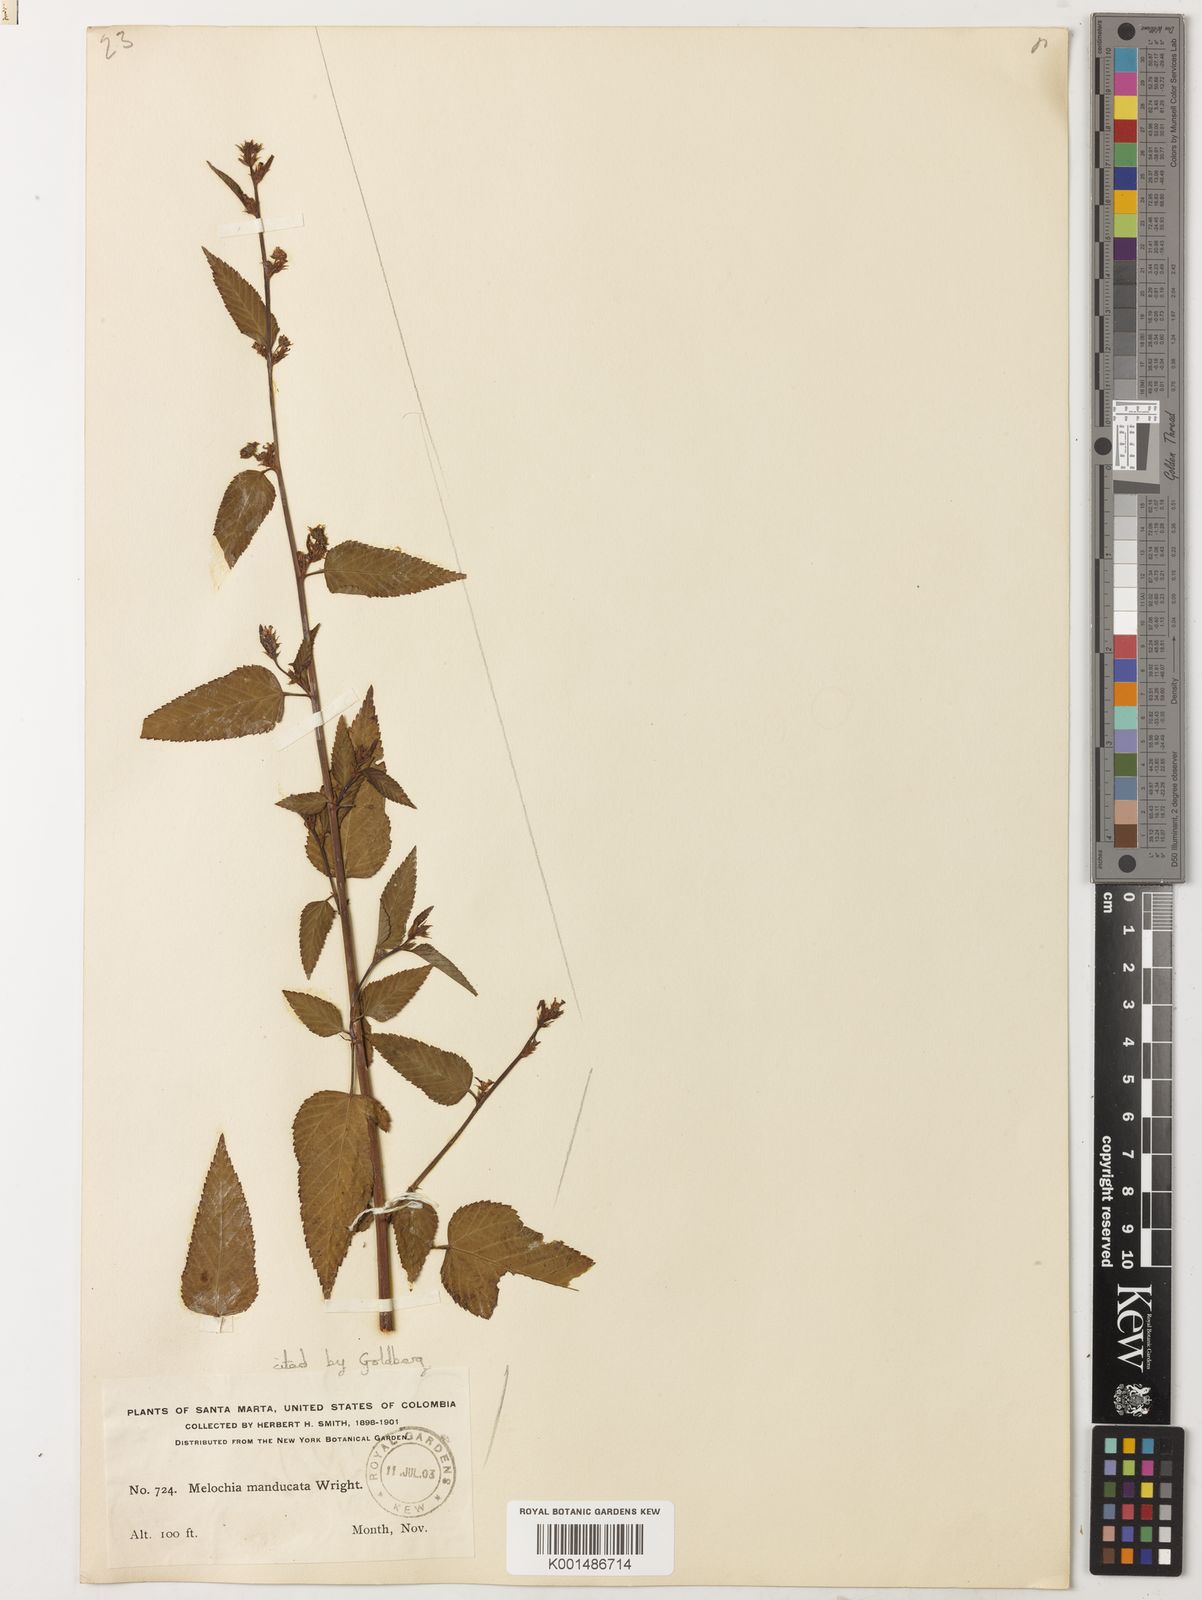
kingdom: Plantae
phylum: Tracheophyta
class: Magnoliopsida
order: Malvales
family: Malvaceae
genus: Melochia
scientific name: Melochia manducata
